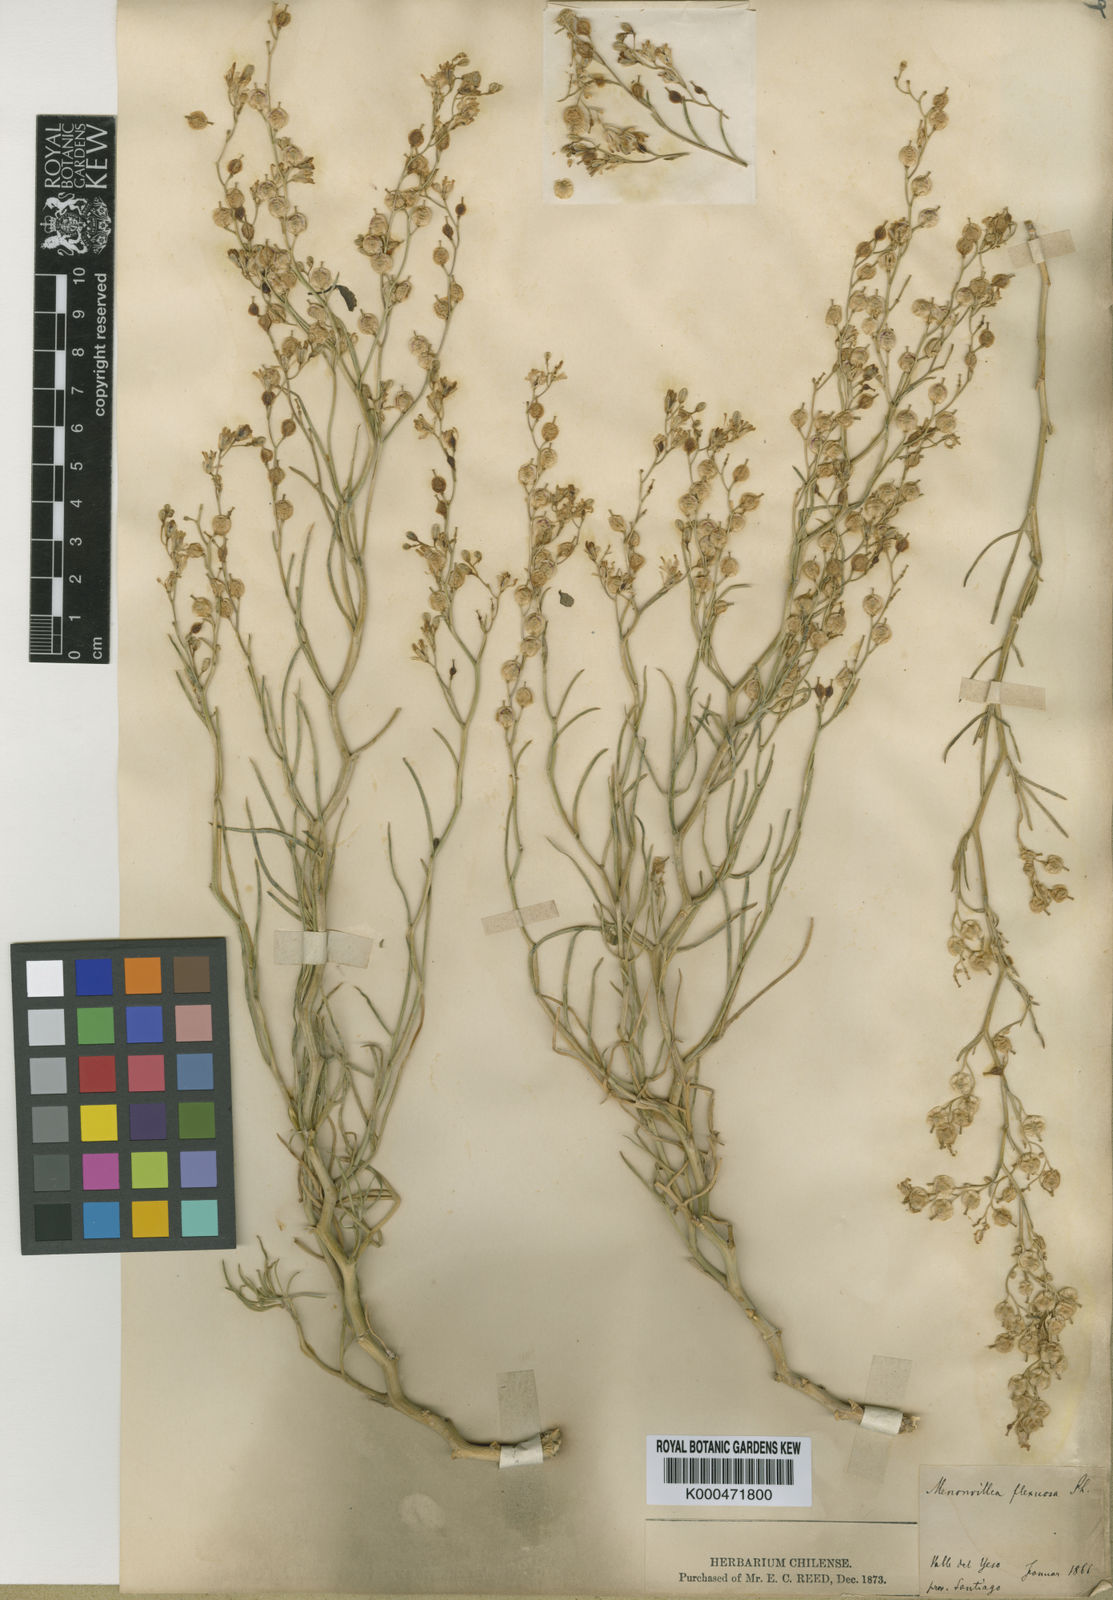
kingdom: Plantae
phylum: Tracheophyta
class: Magnoliopsida
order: Brassicales
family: Brassicaceae
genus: Menonvillea
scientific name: Menonvillea flexuosa
